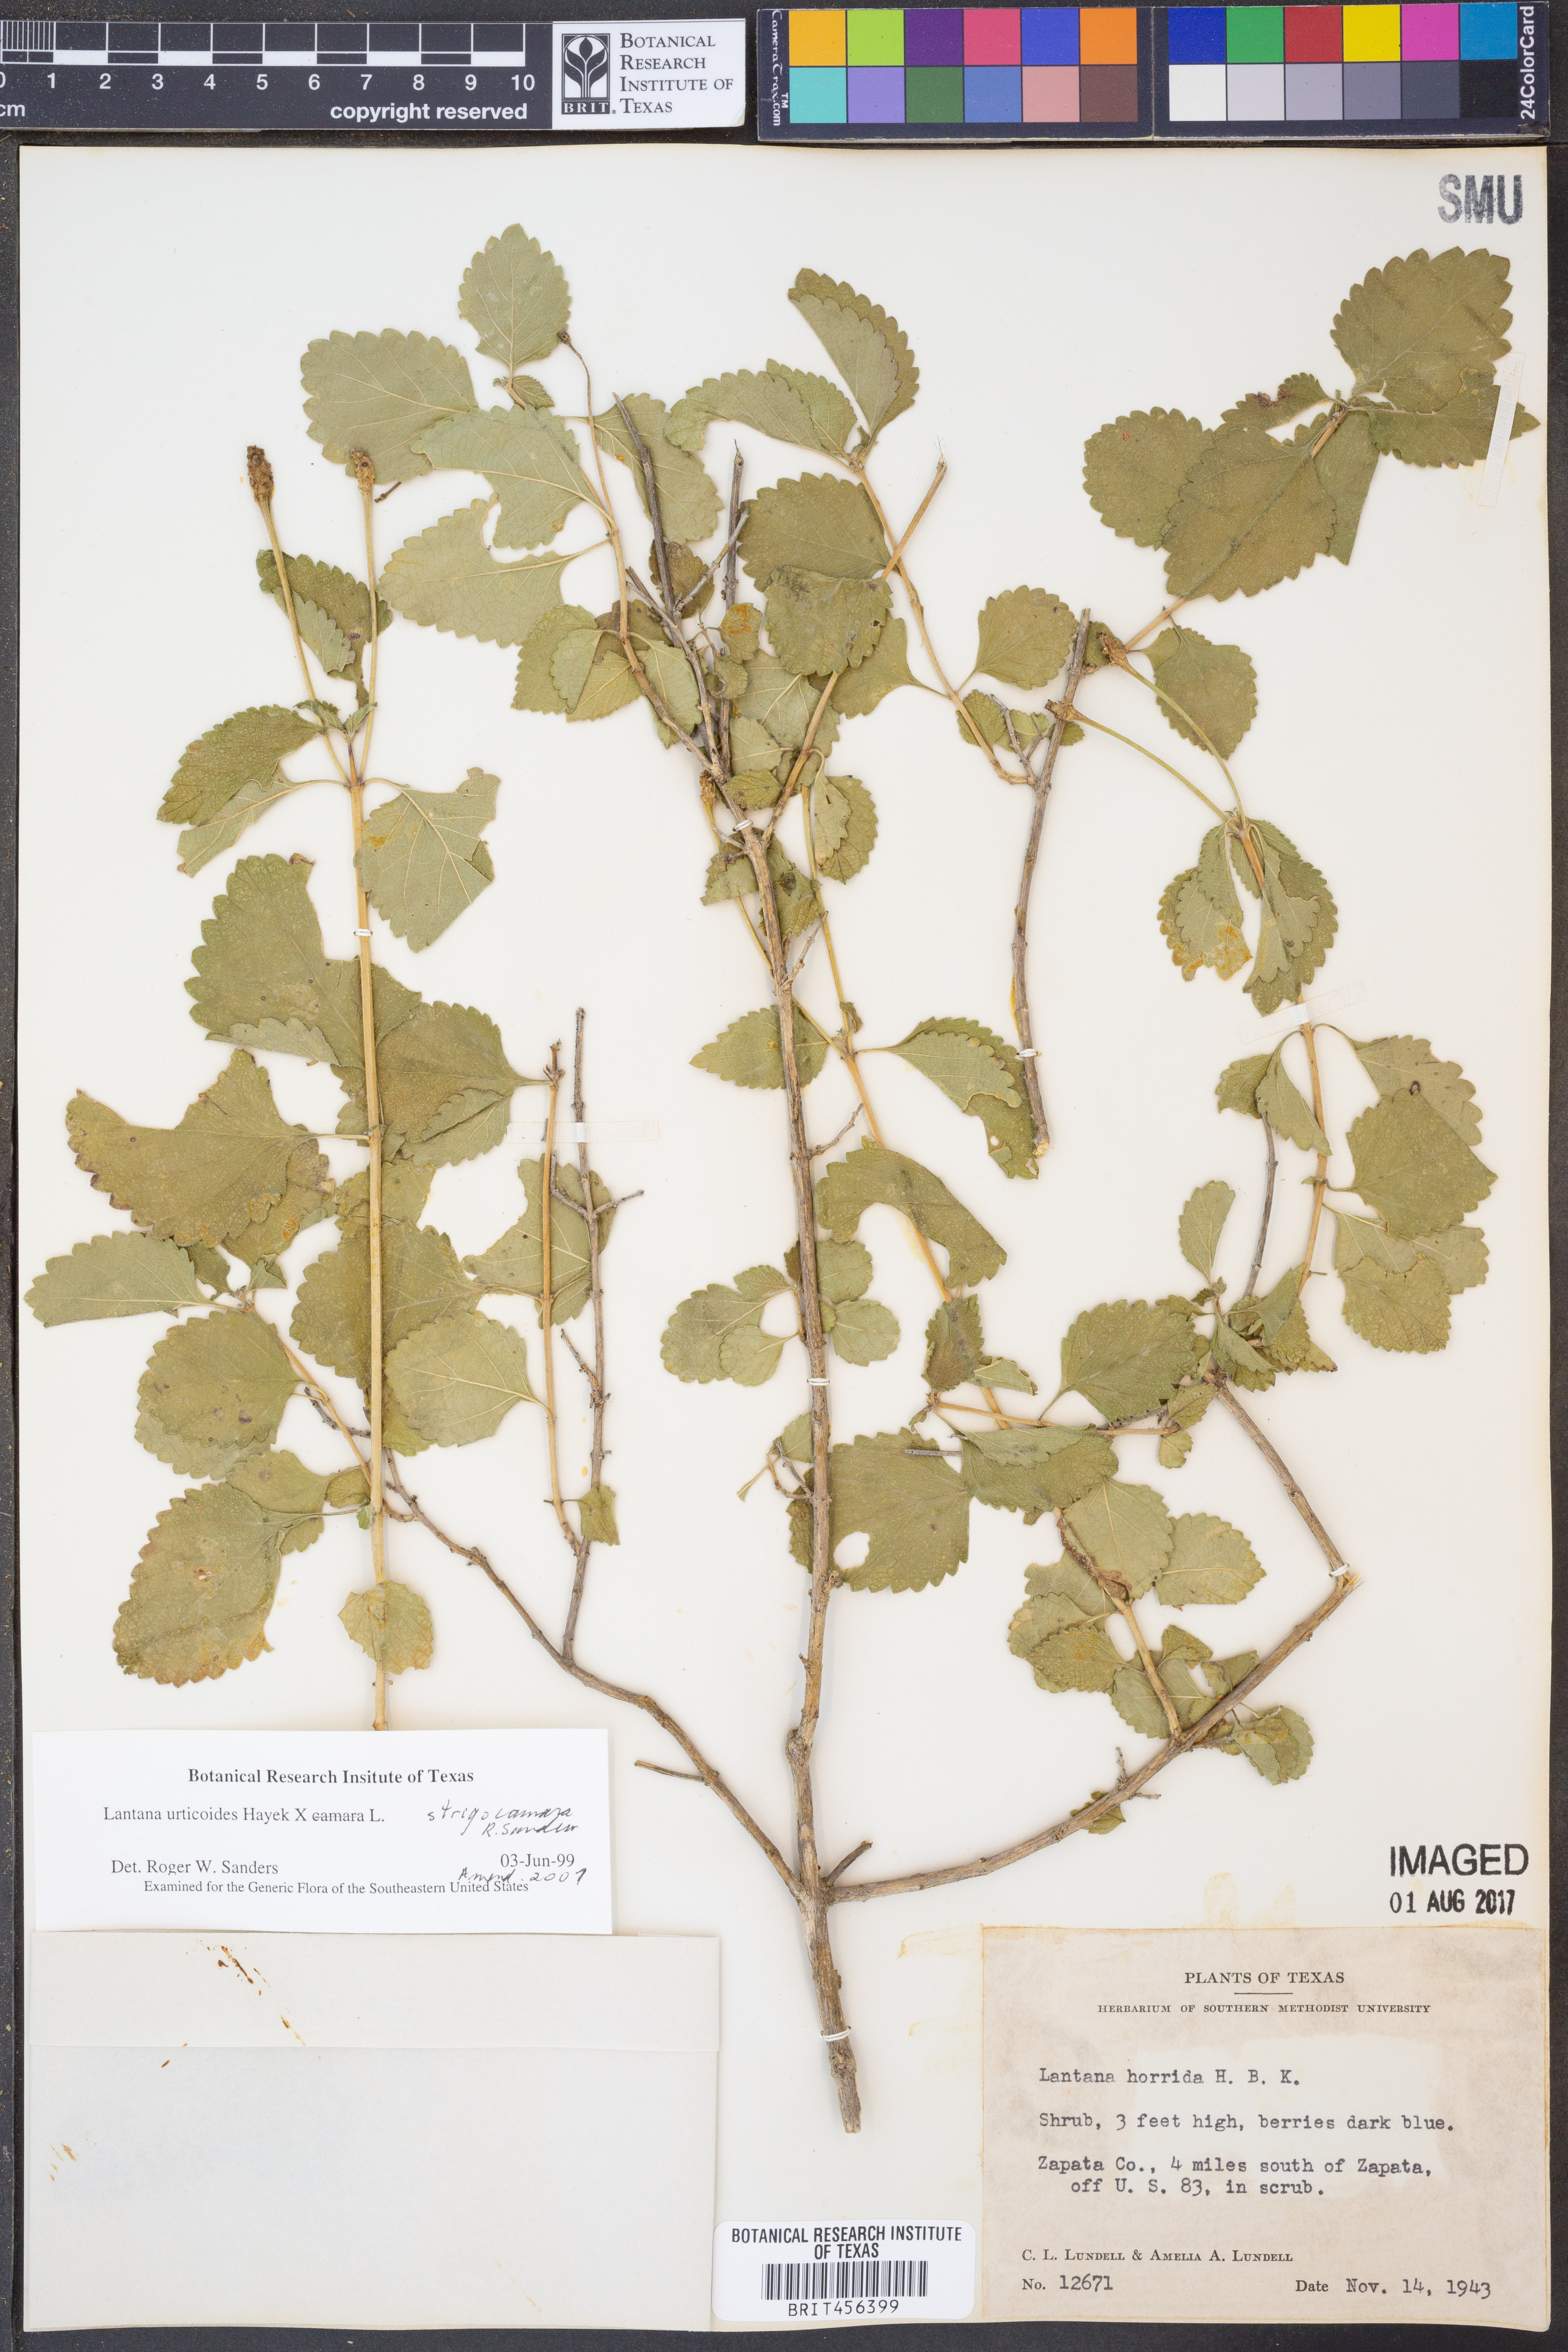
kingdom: Plantae
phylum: Tracheophyta
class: Magnoliopsida
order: Lamiales
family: Verbenaceae
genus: Lantana
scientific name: Lantana urticoides
